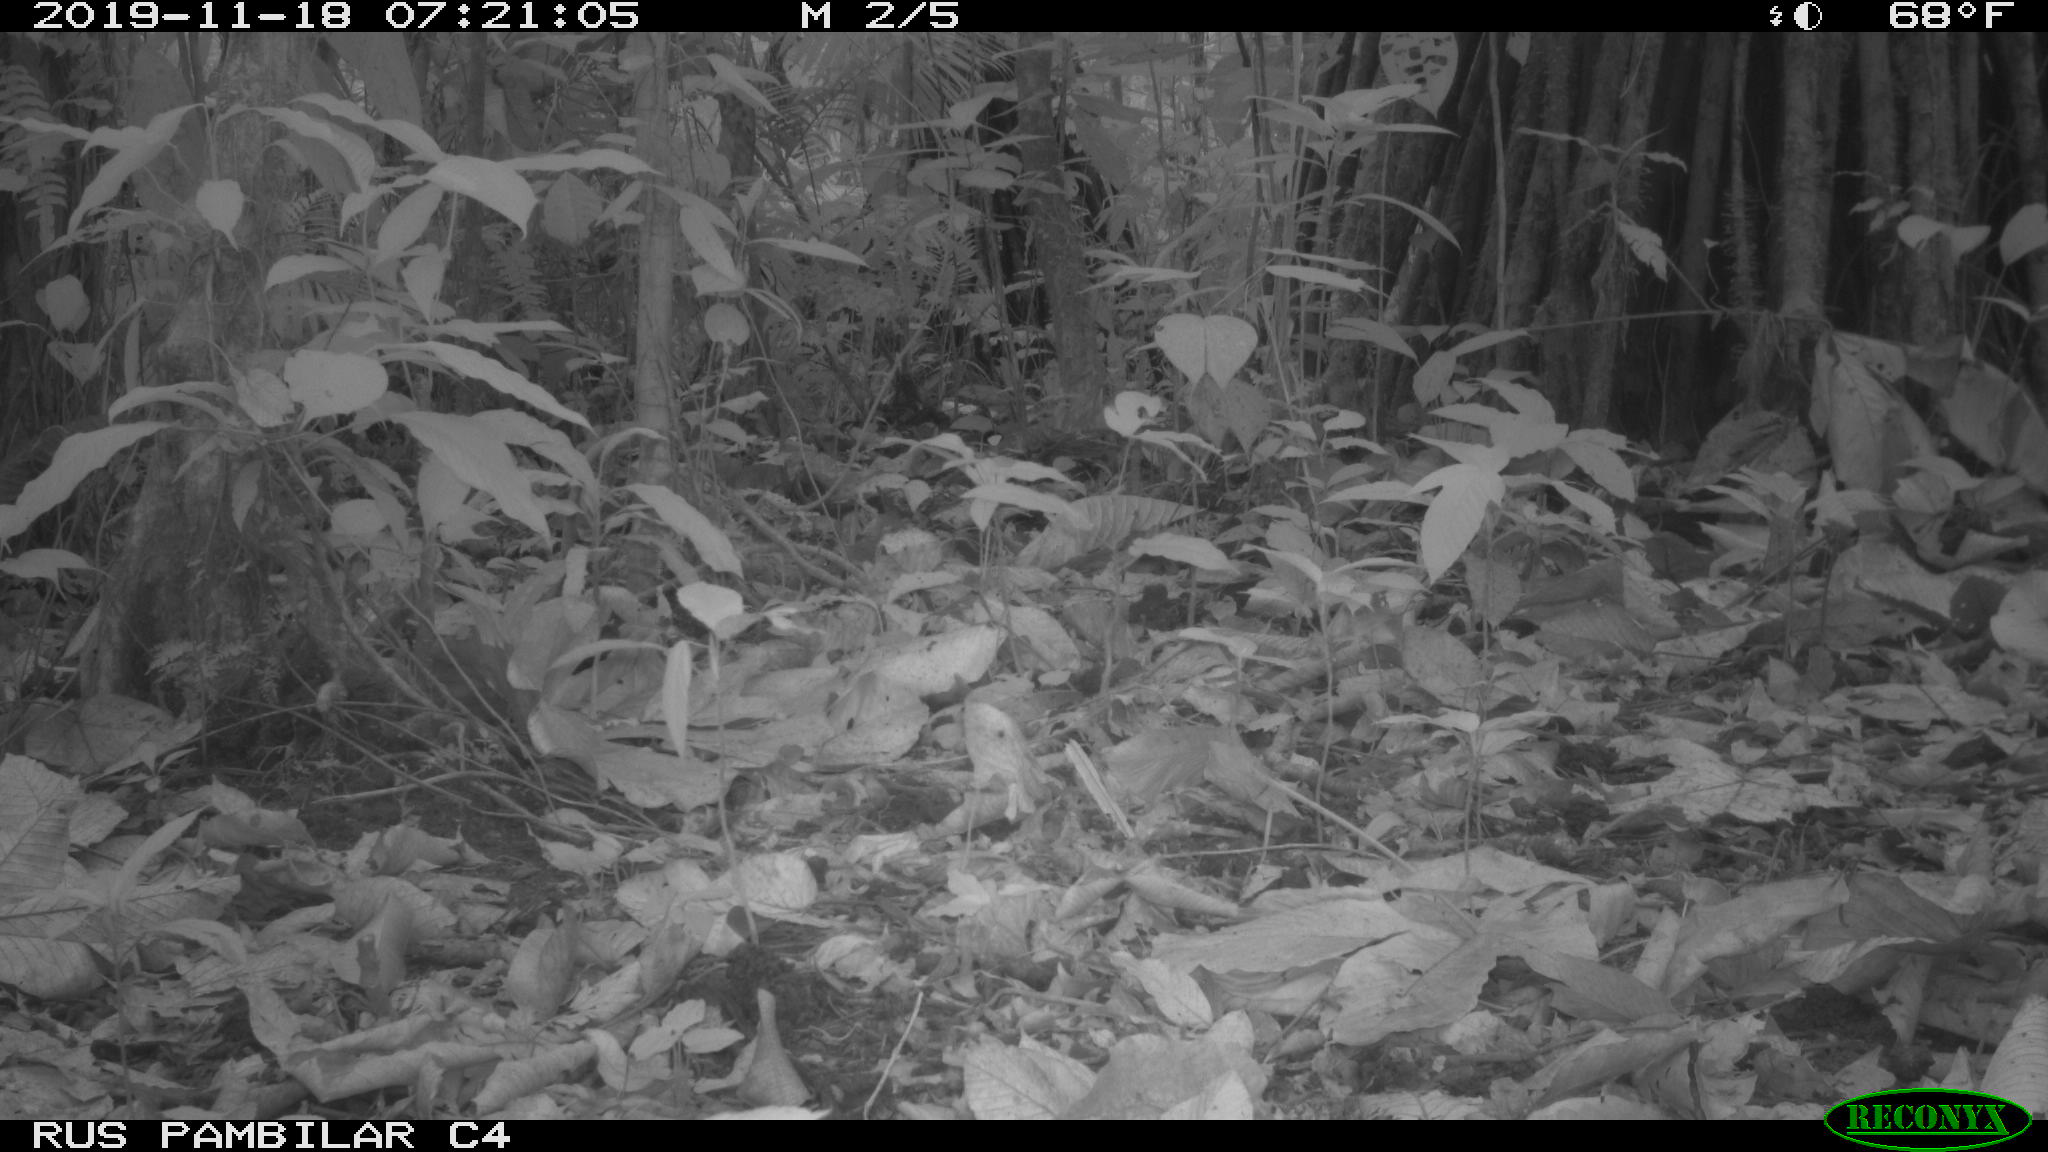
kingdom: Animalia
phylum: Chordata
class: Mammalia
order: Rodentia
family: Dasyproctidae
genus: Dasyprocta
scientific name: Dasyprocta punctata
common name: Central american agouti
